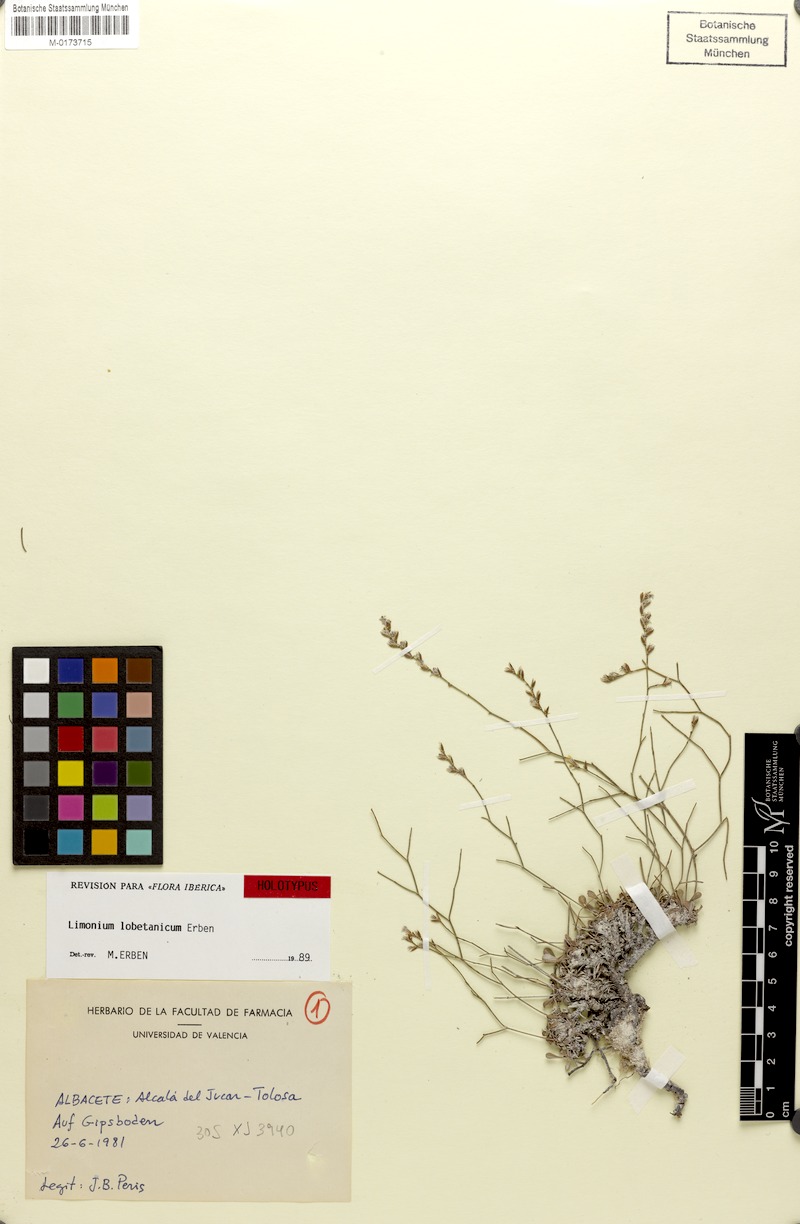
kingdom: Plantae
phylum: Tracheophyta
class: Magnoliopsida
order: Caryophyllales
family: Plumbaginaceae
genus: Limonium
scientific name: Limonium lobetanicum
